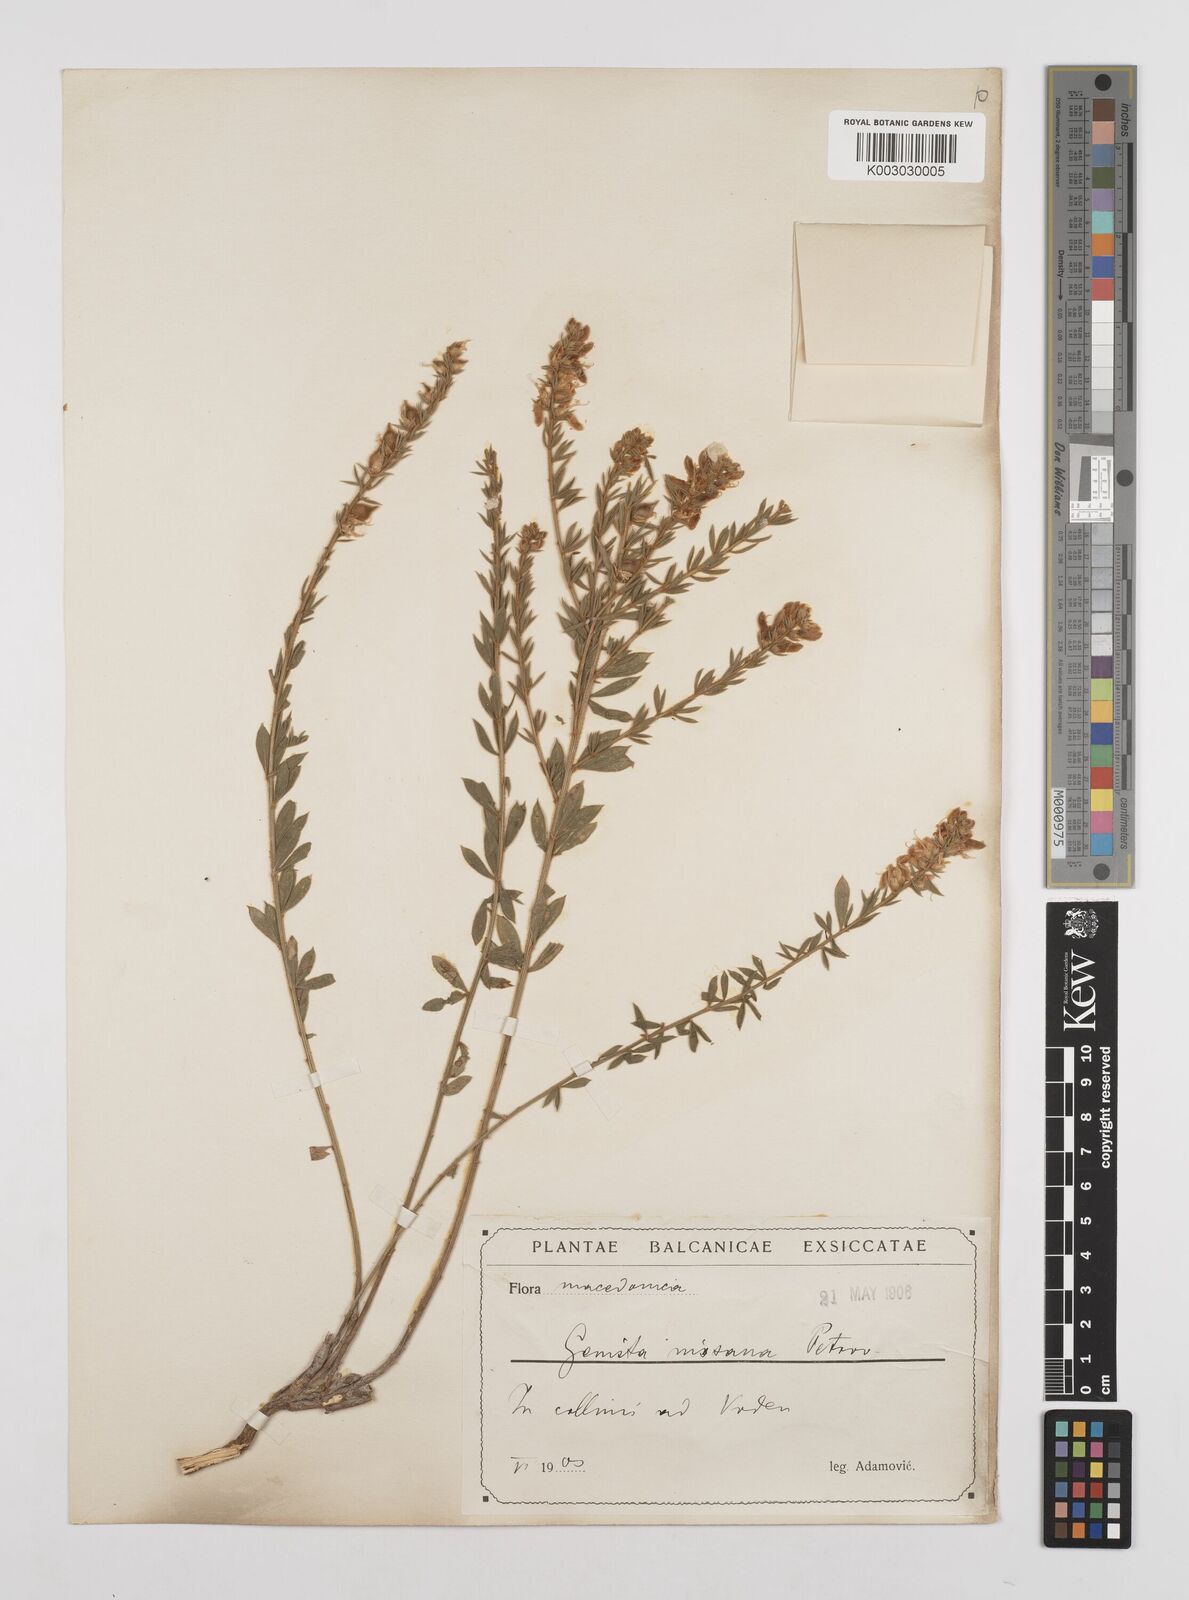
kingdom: Plantae
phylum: Tracheophyta
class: Magnoliopsida
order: Fabales
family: Fabaceae
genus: Genista
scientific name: Genista nissana
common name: Macedonian broom
